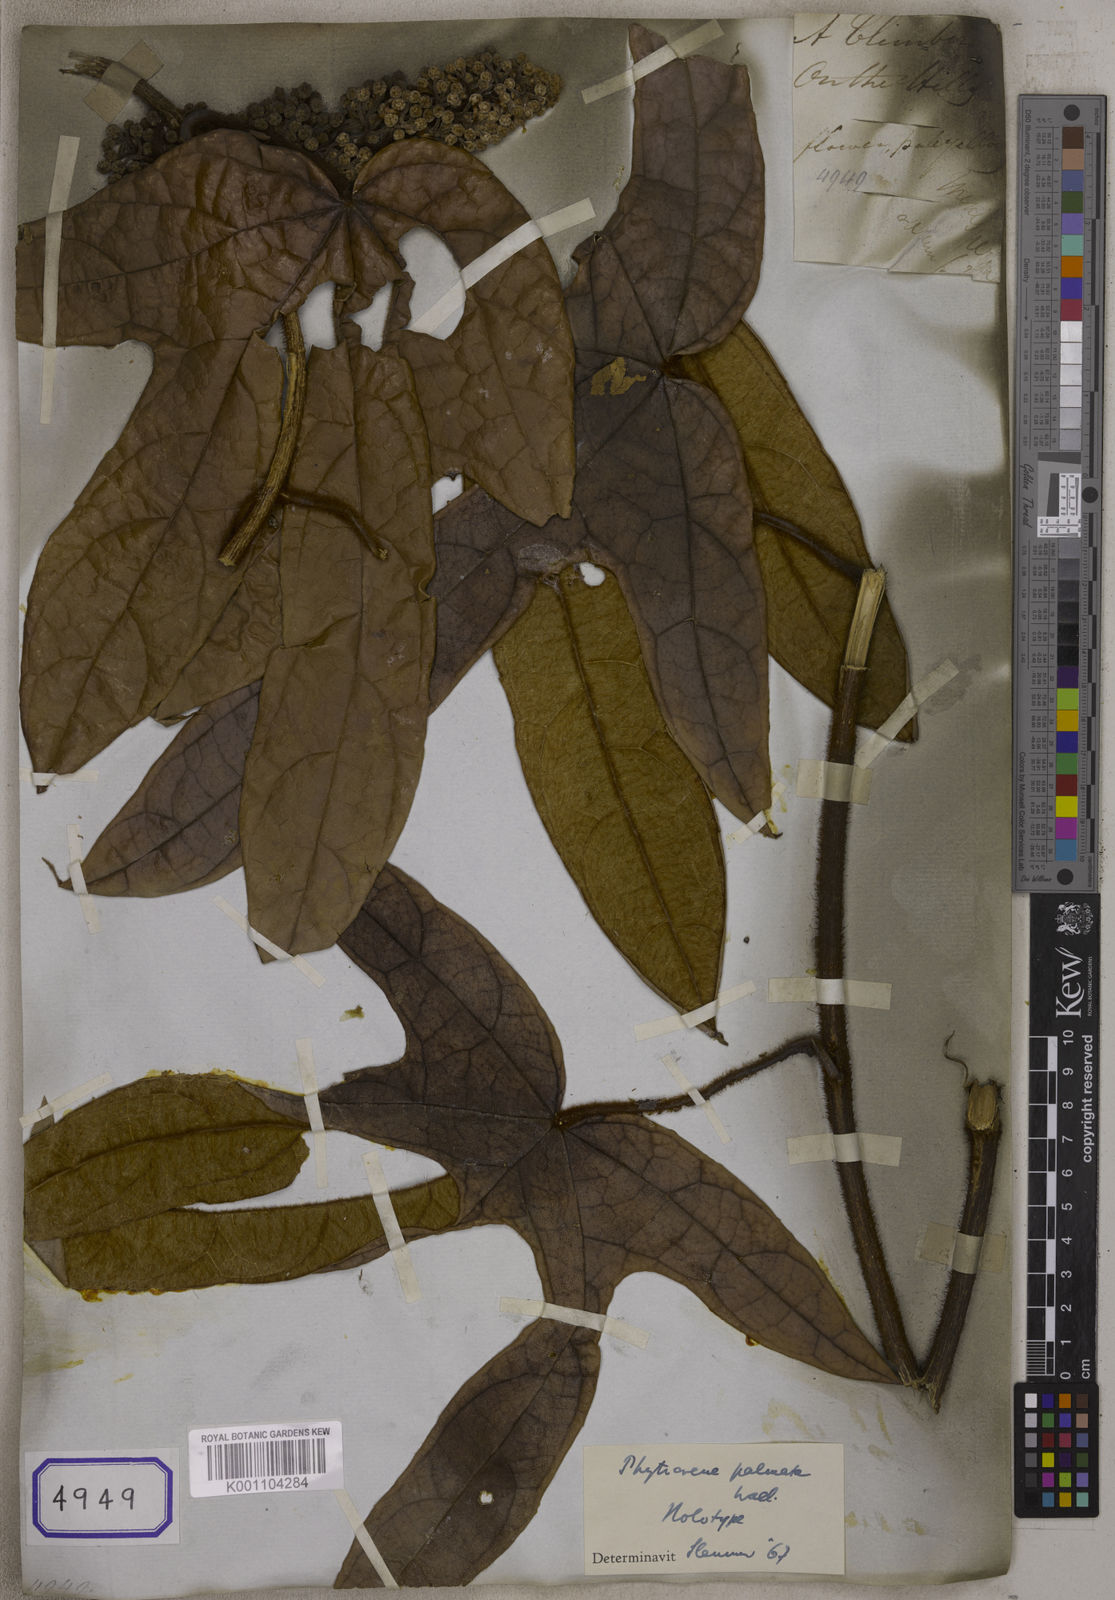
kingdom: Plantae
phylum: Tracheophyta
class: Magnoliopsida
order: Icacinales
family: Icacinaceae
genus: Phytocrene
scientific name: Phytocrene palmata
